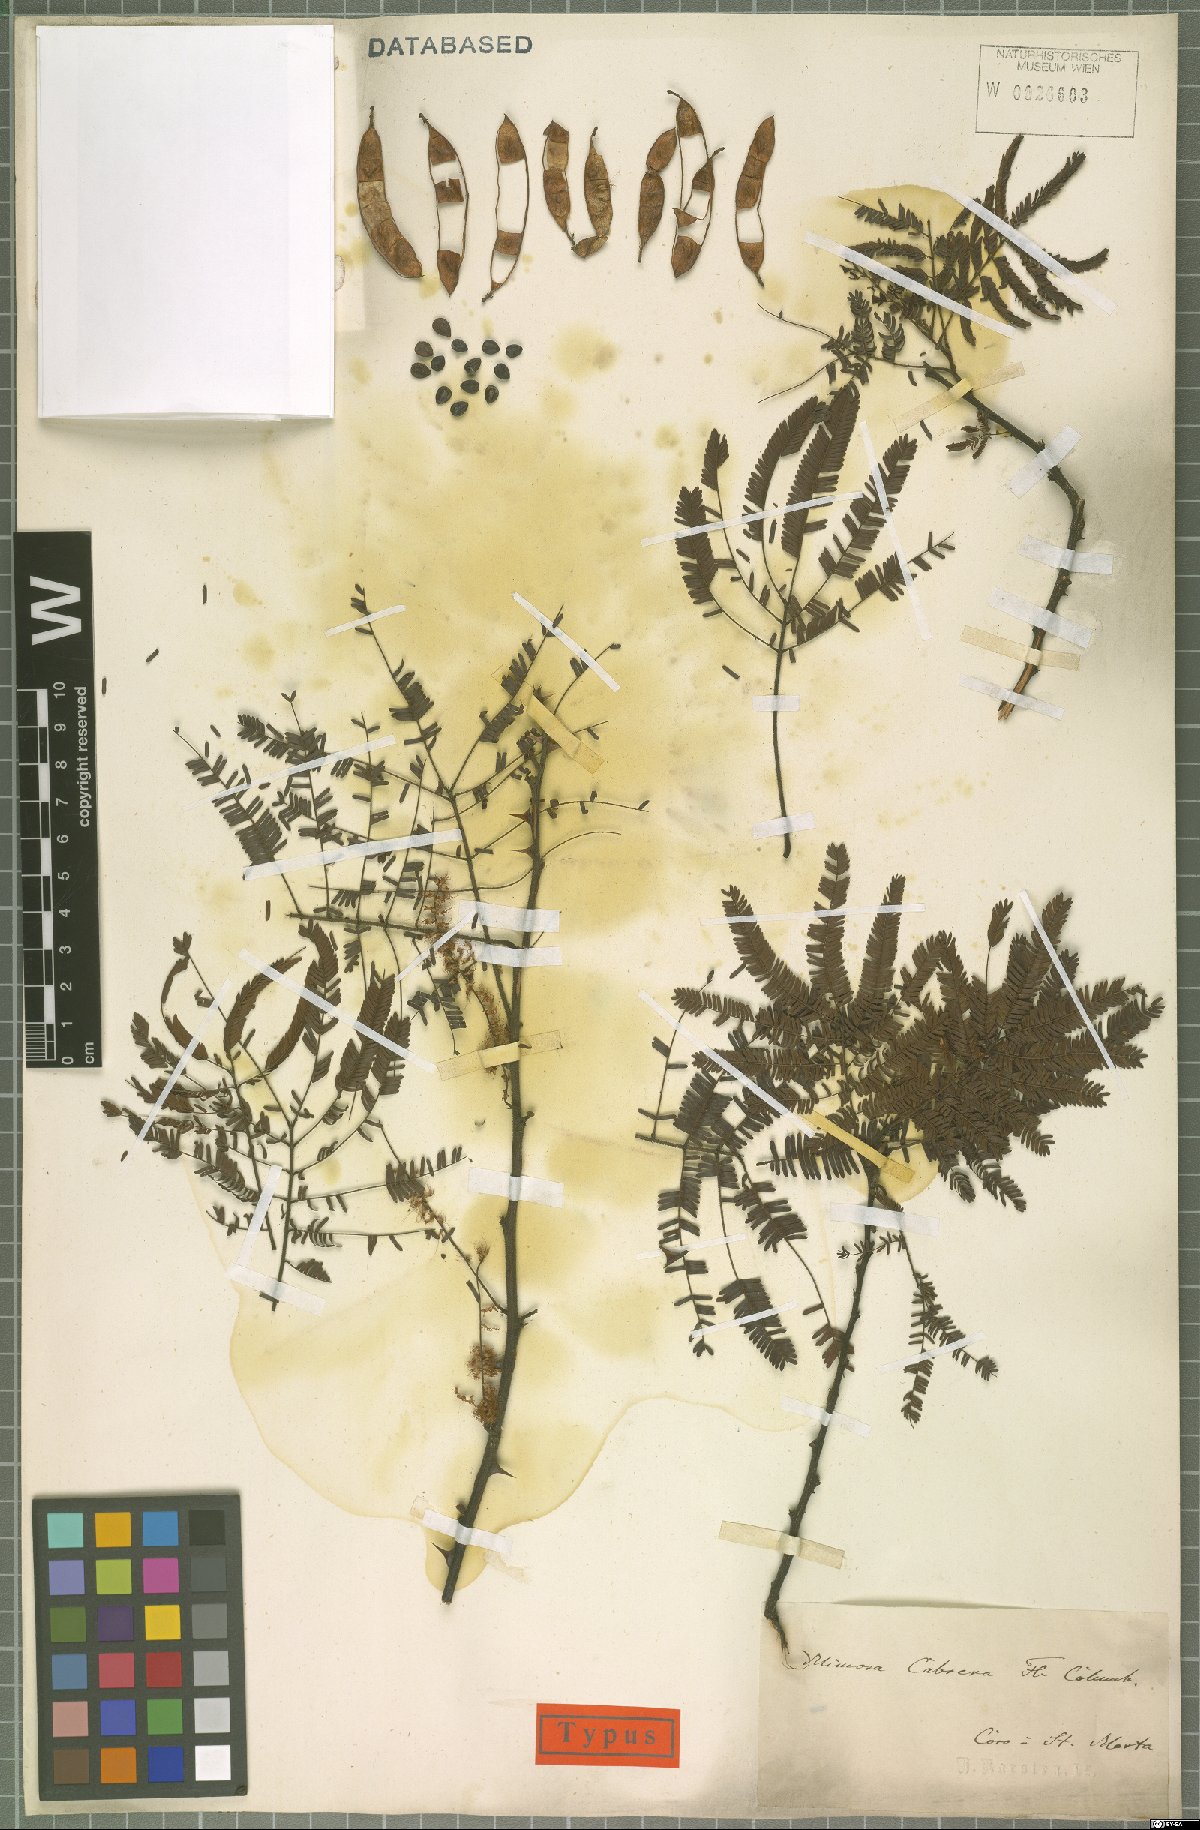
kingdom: Plantae
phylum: Tracheophyta
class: Magnoliopsida
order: Fabales
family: Fabaceae
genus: Mimosa
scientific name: Mimosa tenuiflora
